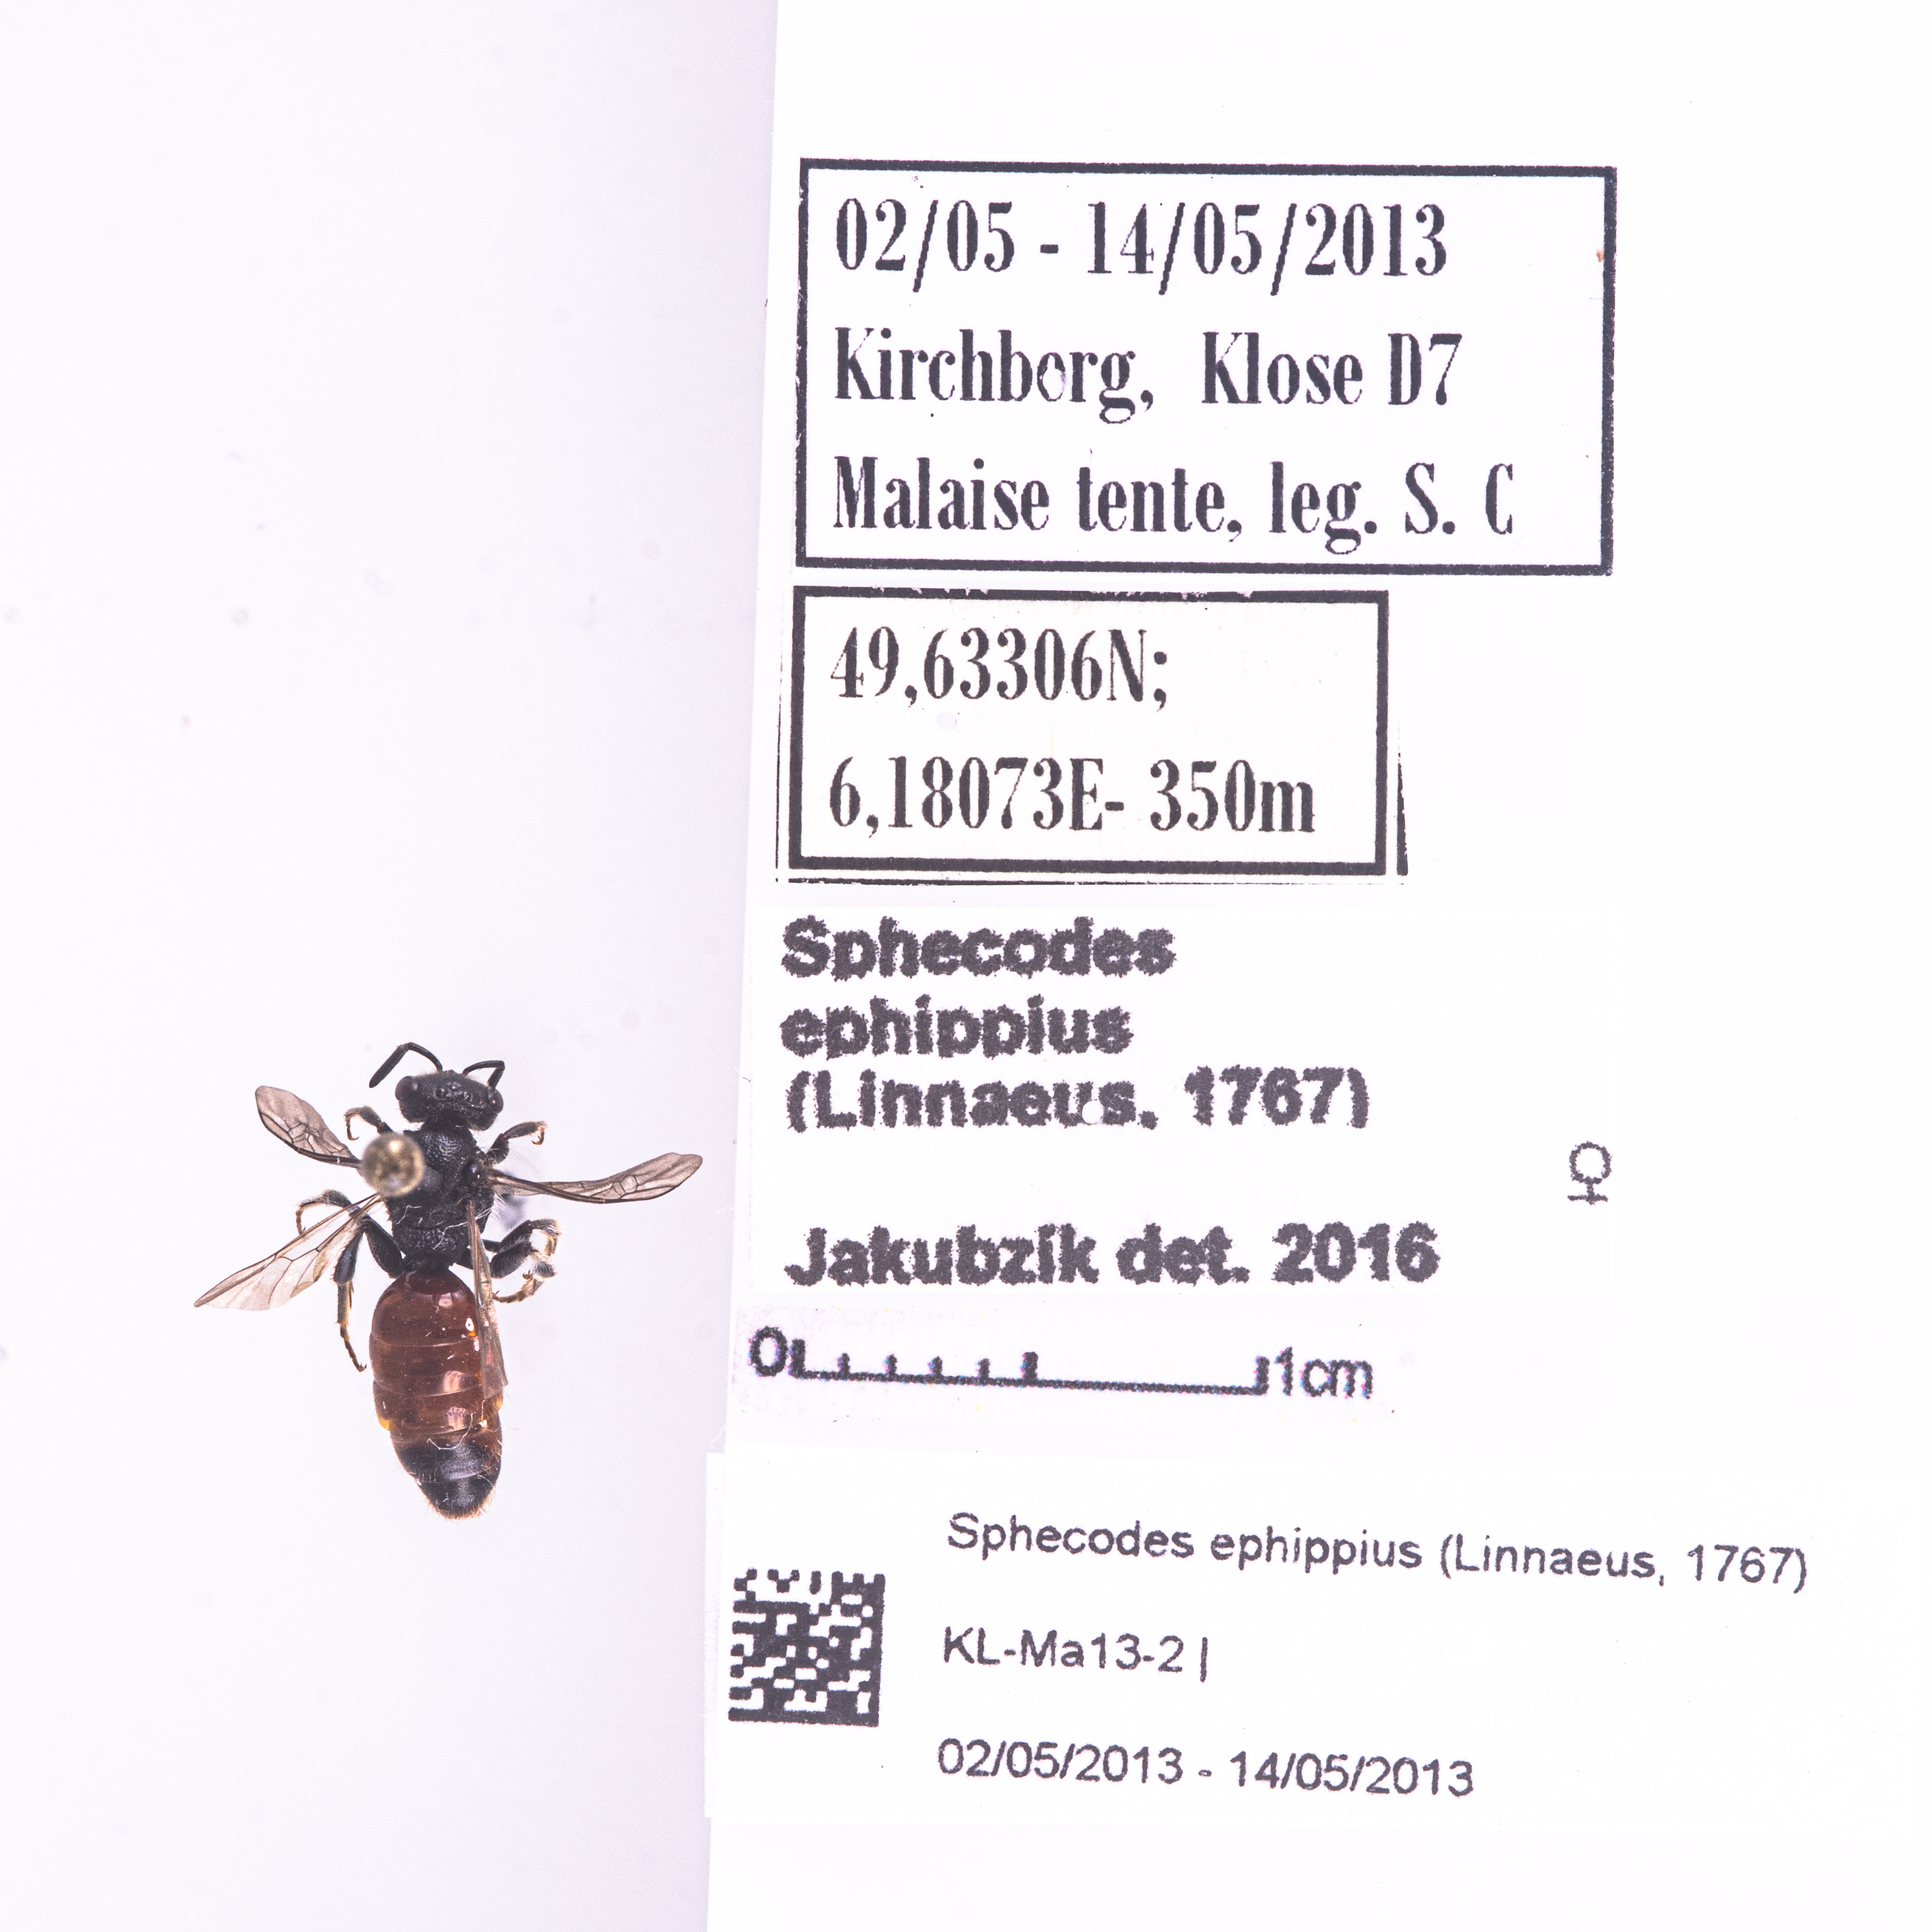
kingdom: Animalia
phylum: Arthropoda
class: Insecta
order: Hymenoptera
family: Halictidae
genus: Sphecodes
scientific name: Sphecodes ephippius
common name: Bare-saddled blood bee
